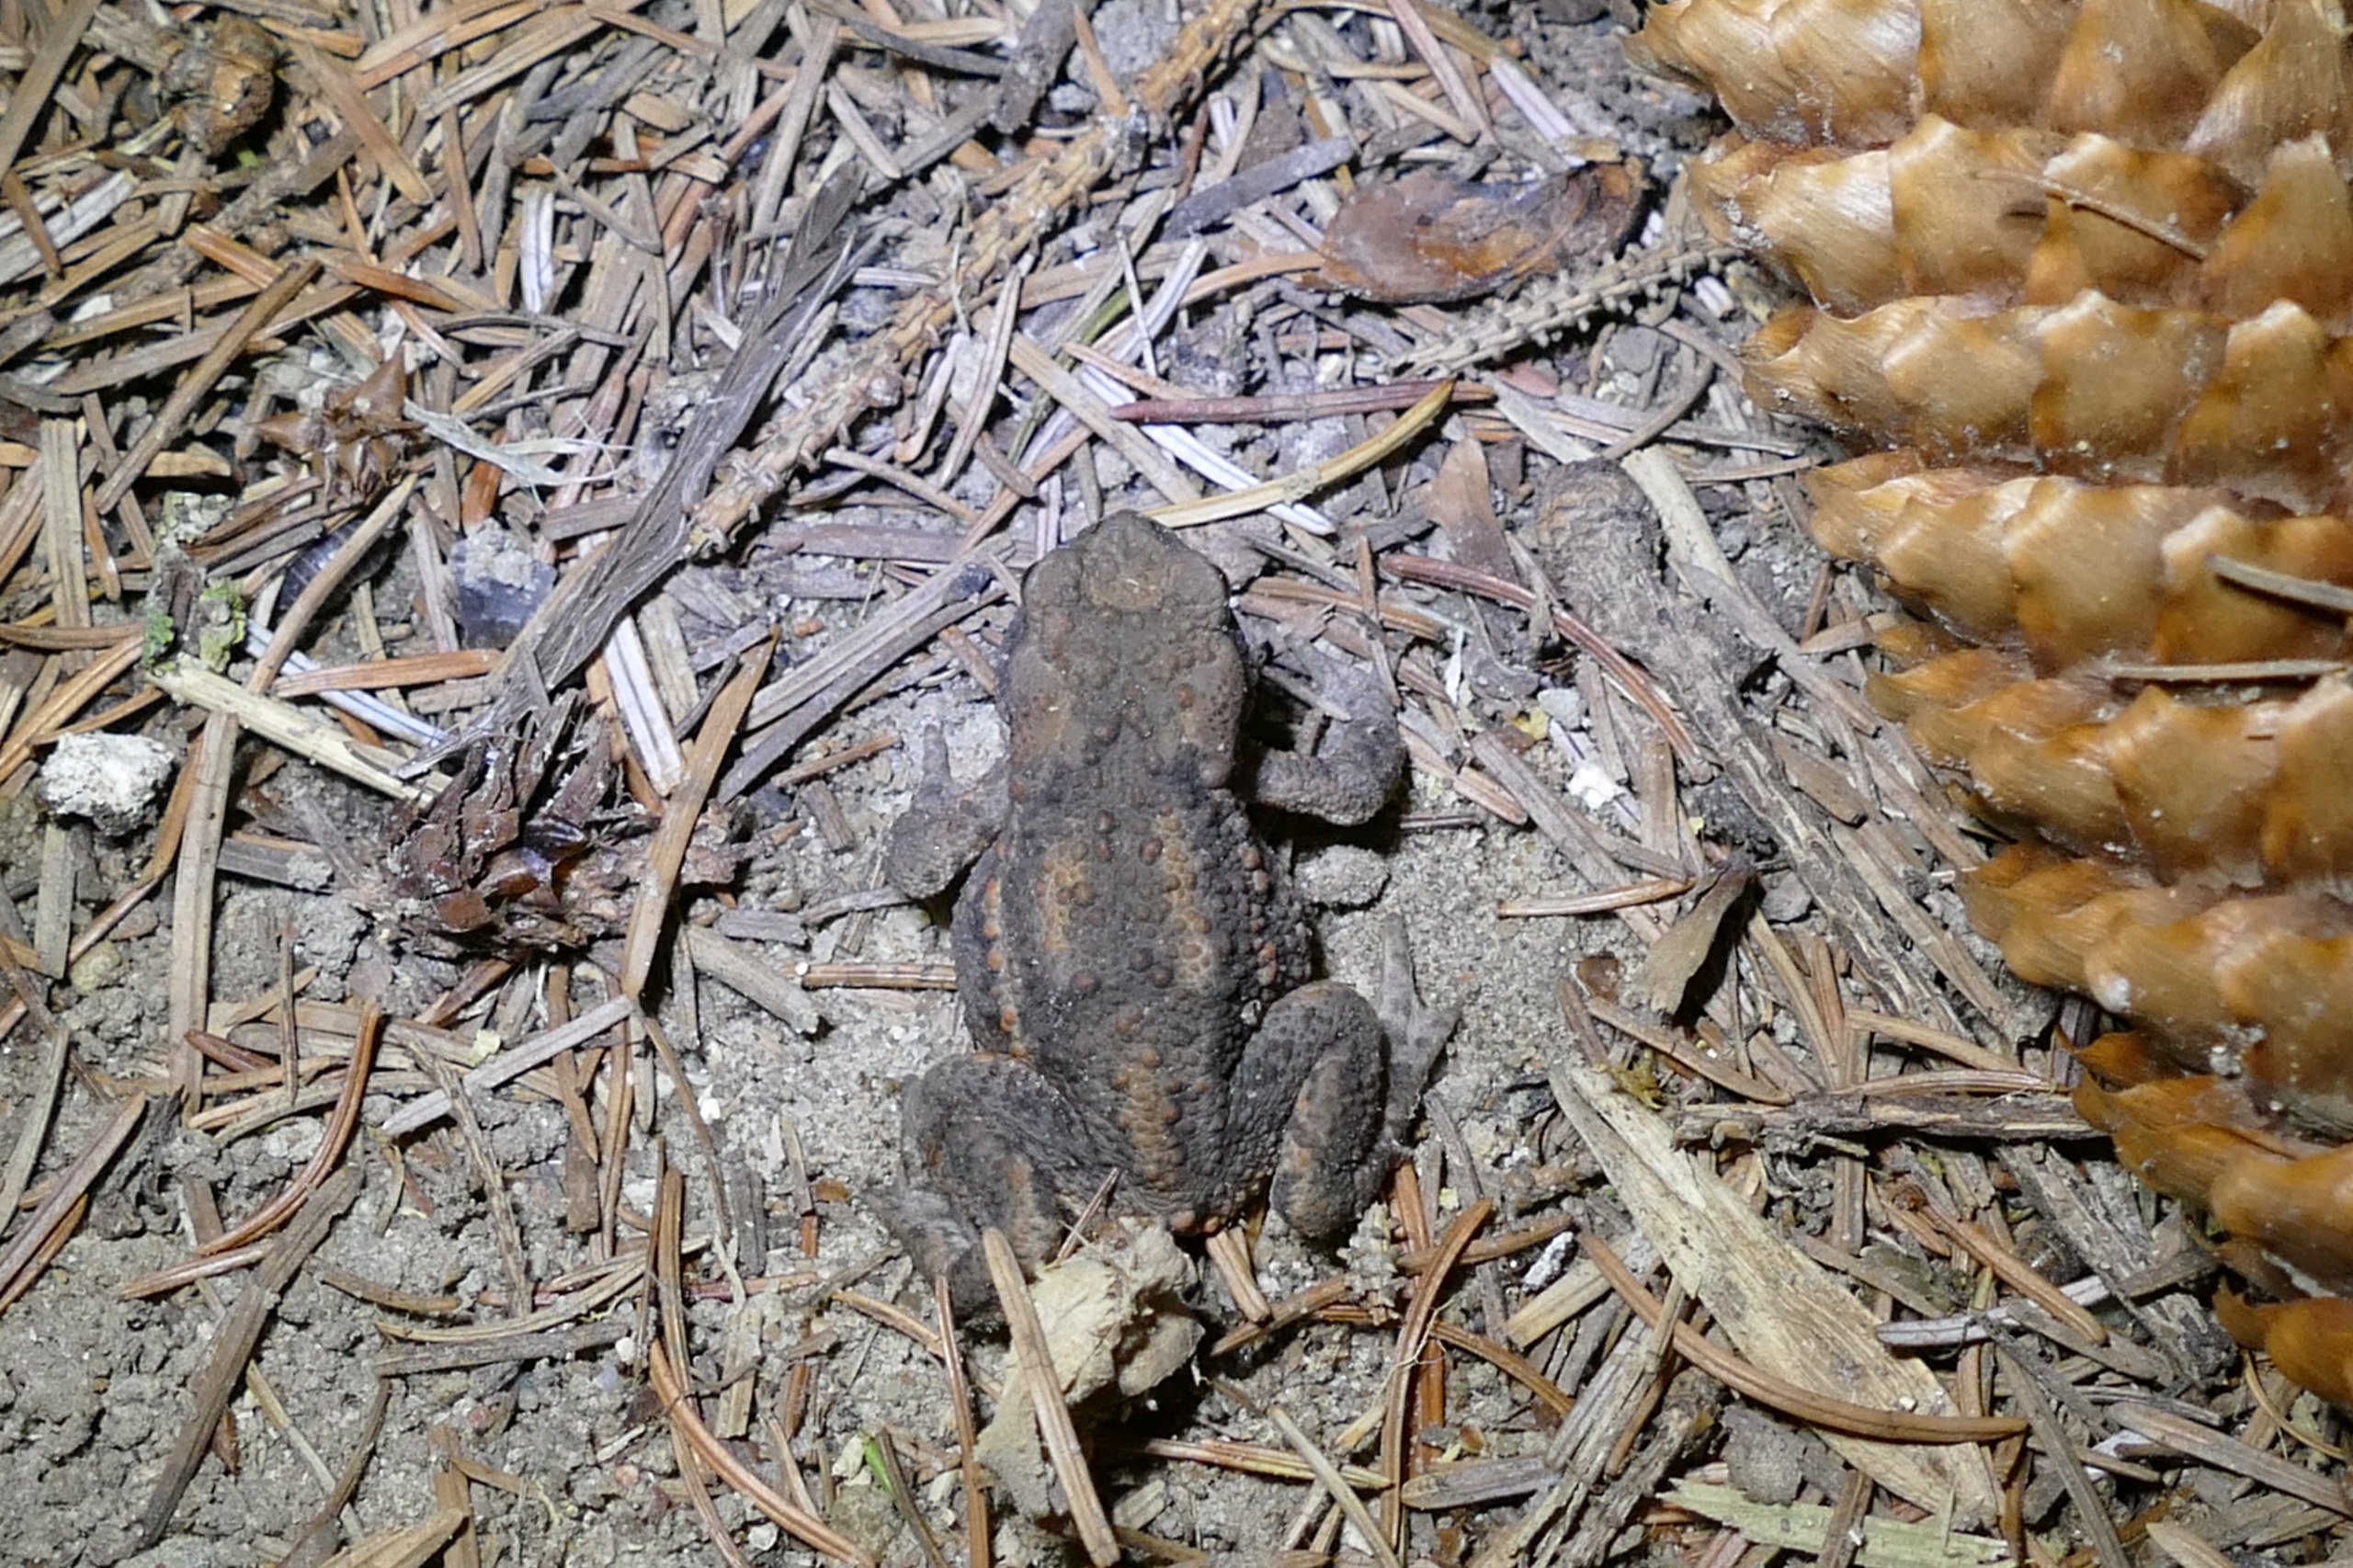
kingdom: Animalia
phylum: Chordata
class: Amphibia
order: Anura
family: Bufonidae
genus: Bufo
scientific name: Bufo bufo
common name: Skrubtudse
